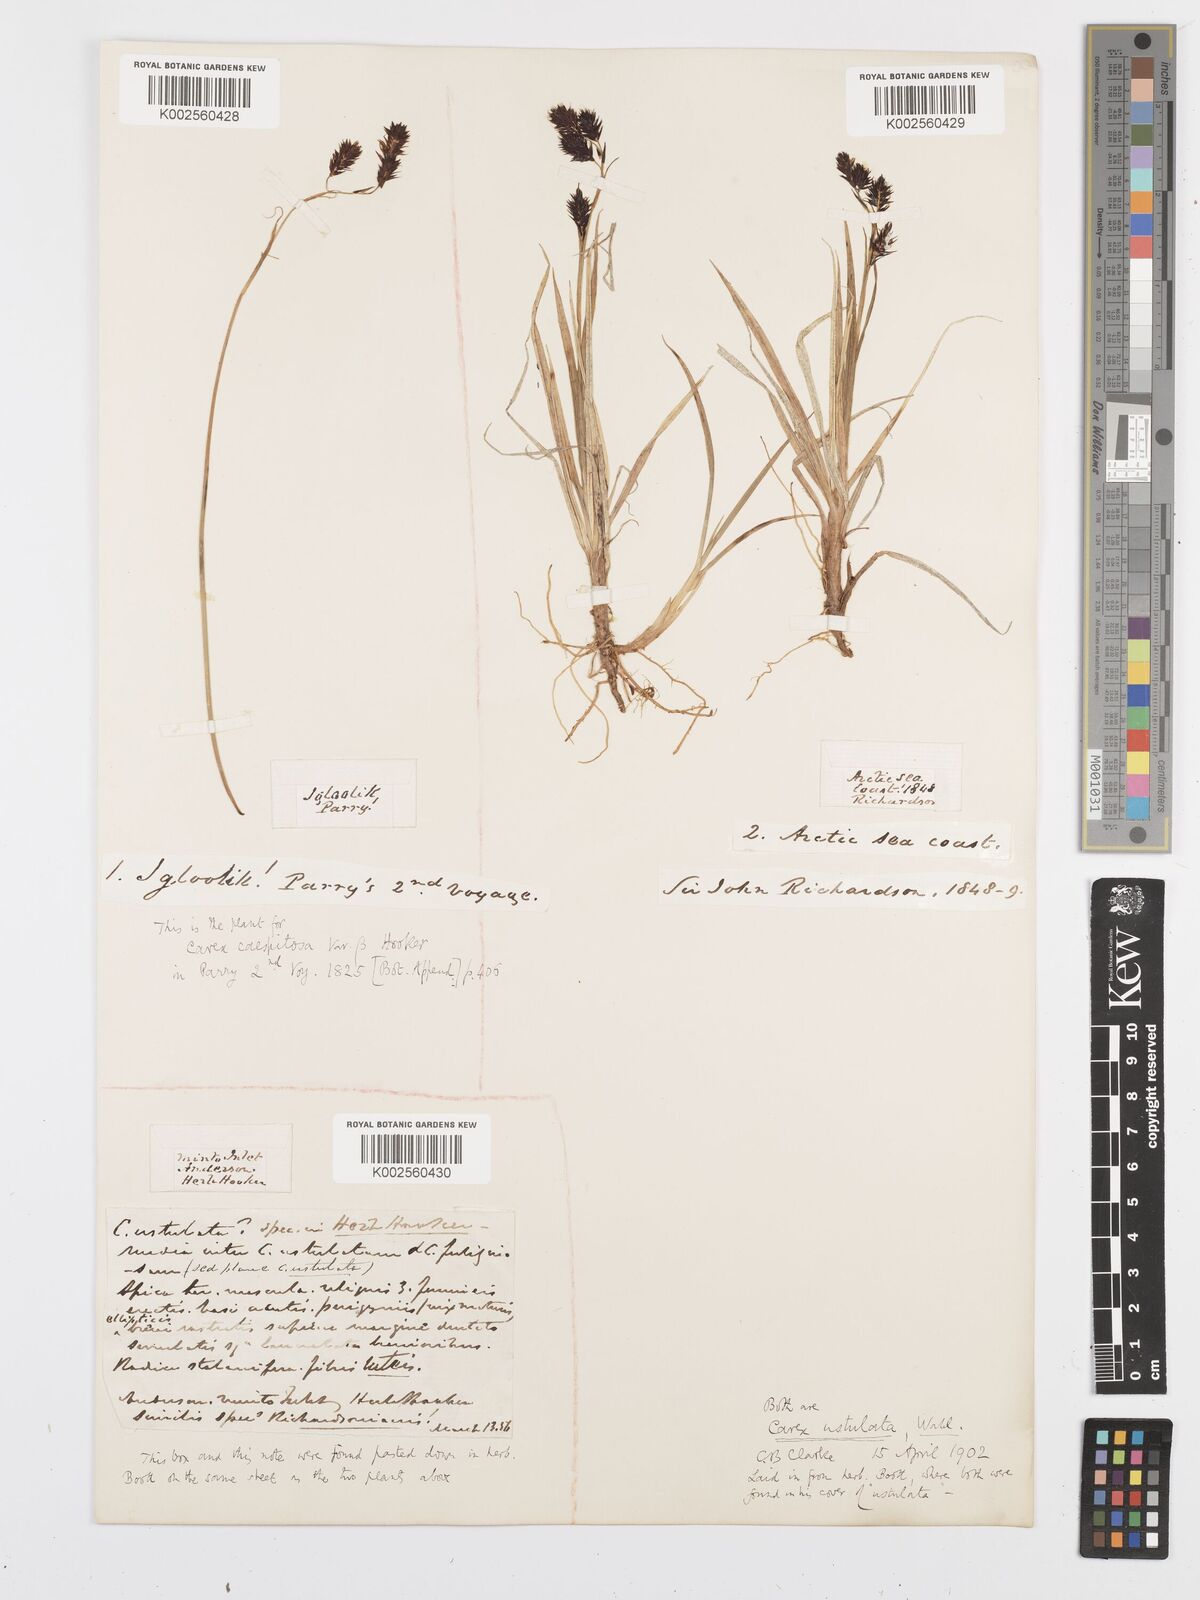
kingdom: Plantae
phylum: Tracheophyta
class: Liliopsida
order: Poales
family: Cyperaceae
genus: Carex
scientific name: Carex atrofusca
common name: Scorched alpine-sedge
